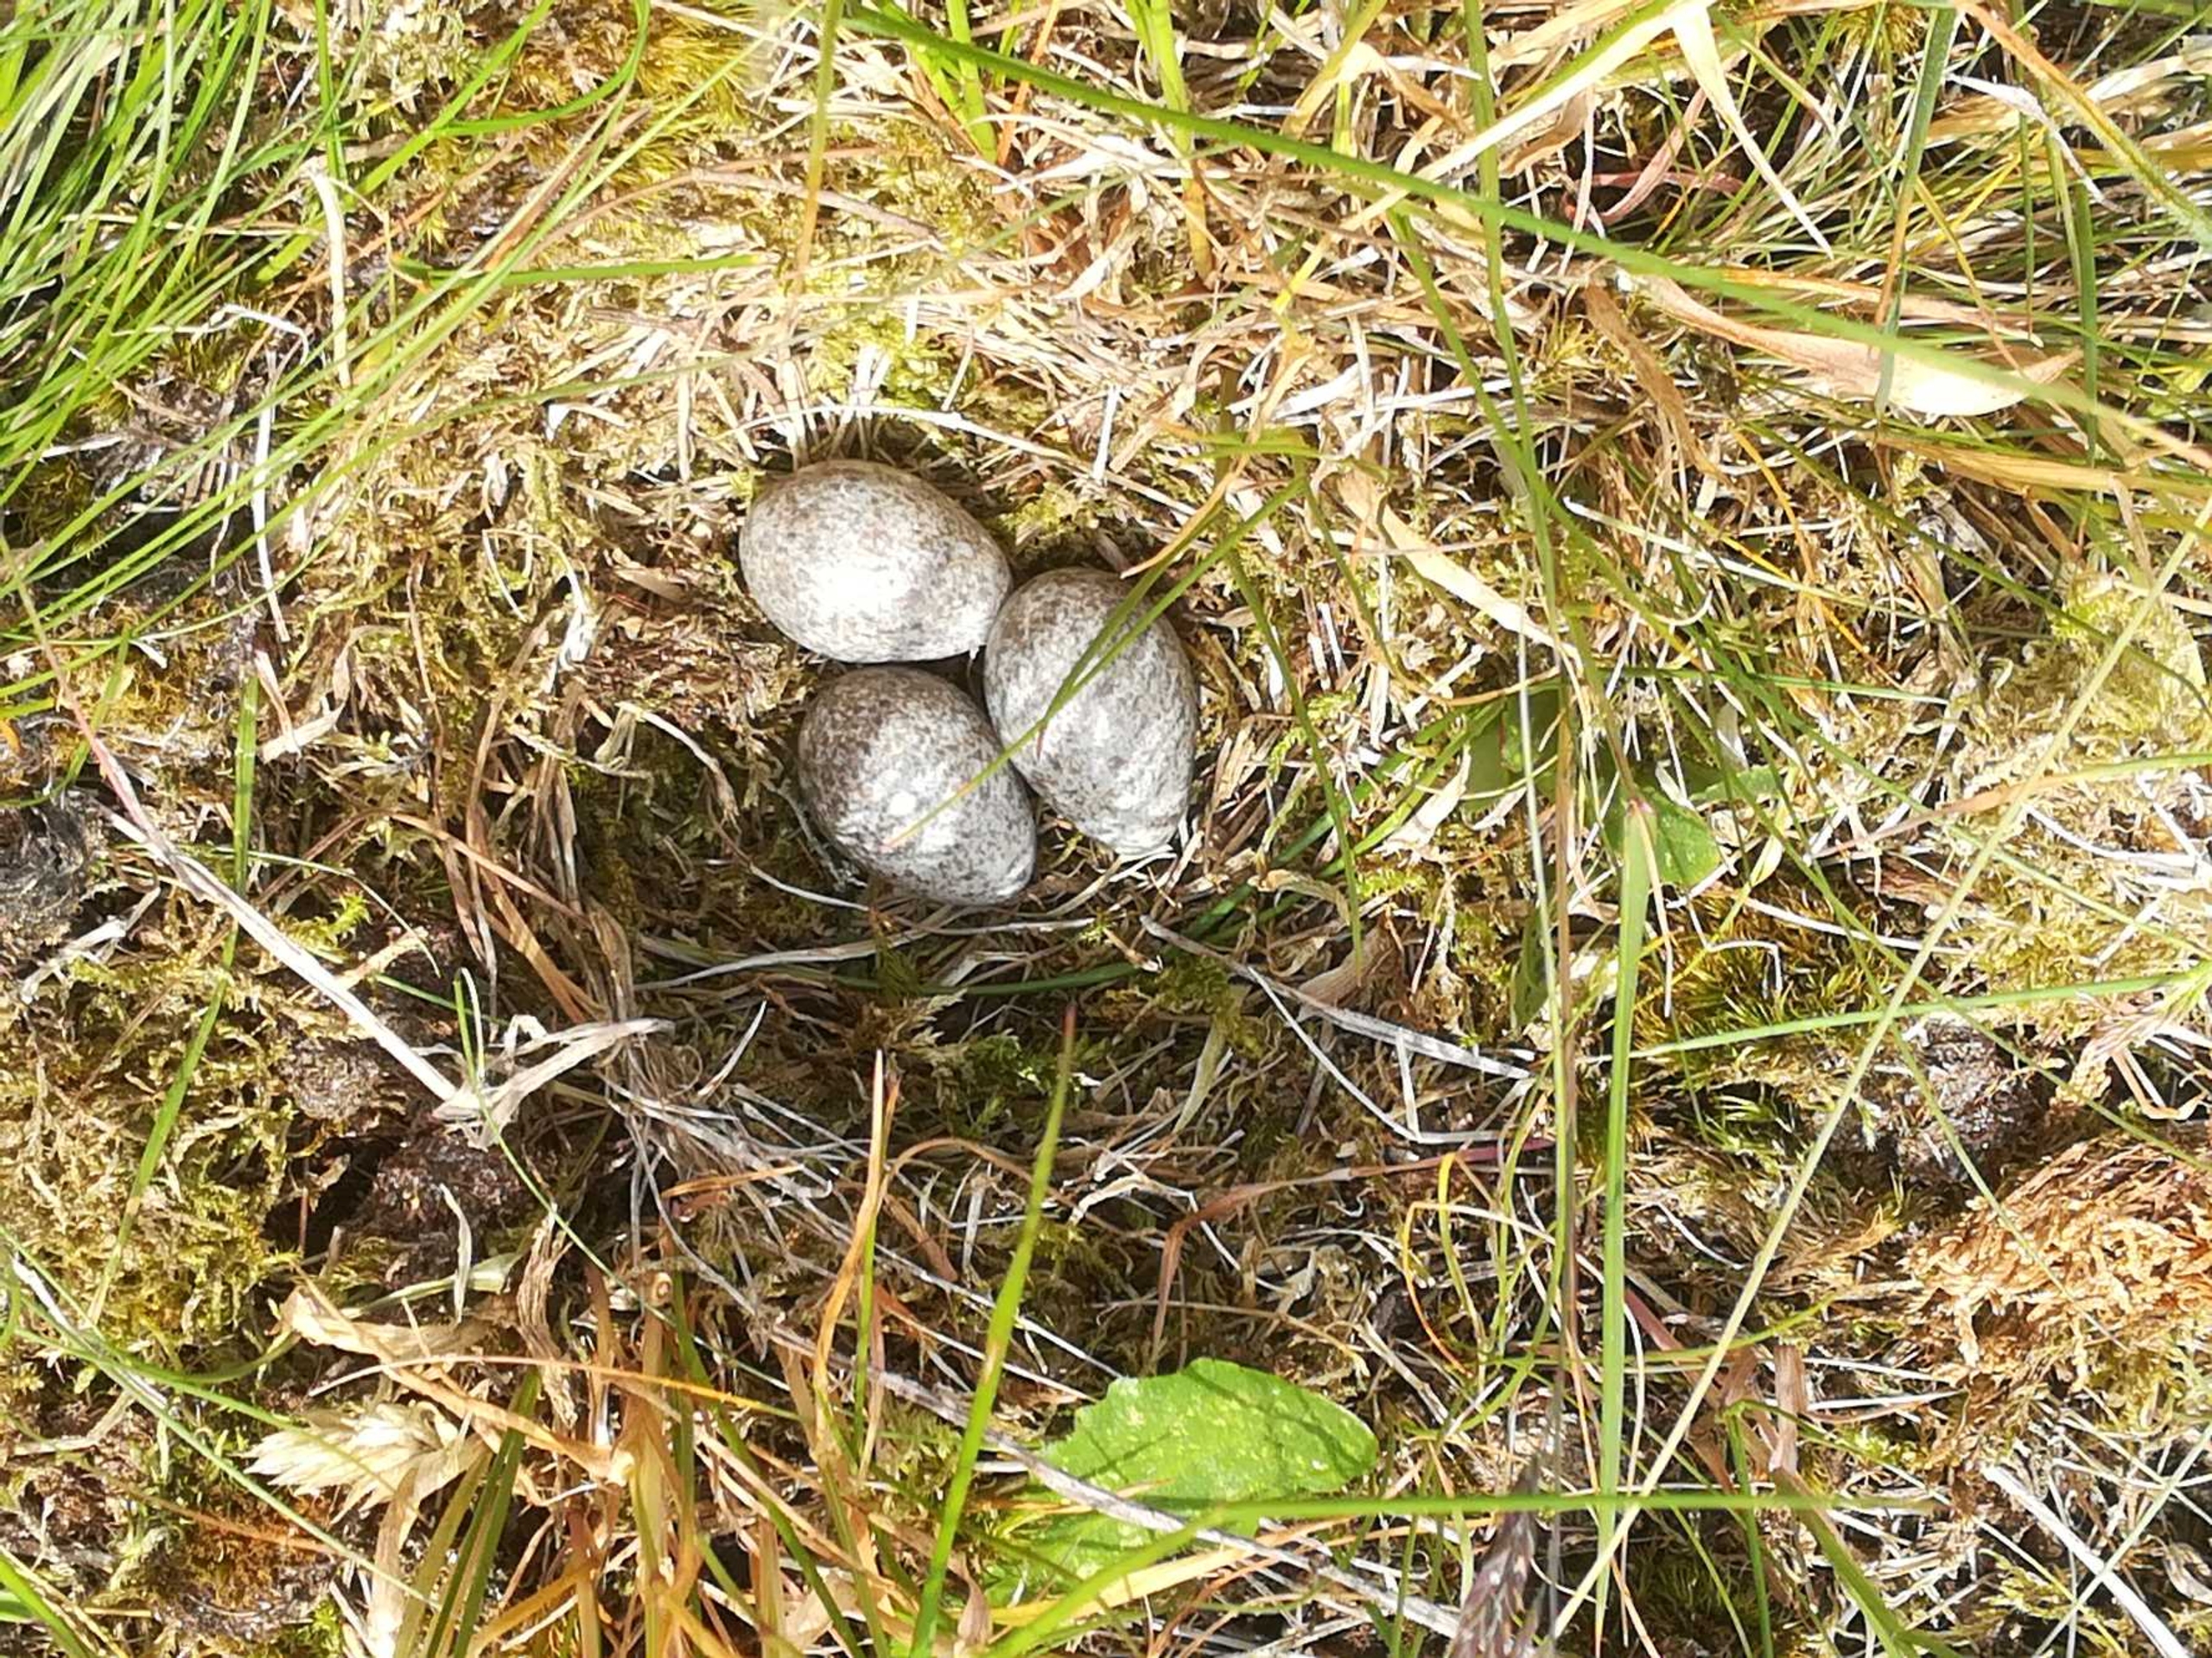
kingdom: Animalia
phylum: Chordata
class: Aves
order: Passeriformes
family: Alaudidae
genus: Alauda
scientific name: Alauda arvensis
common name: Sanglærke
